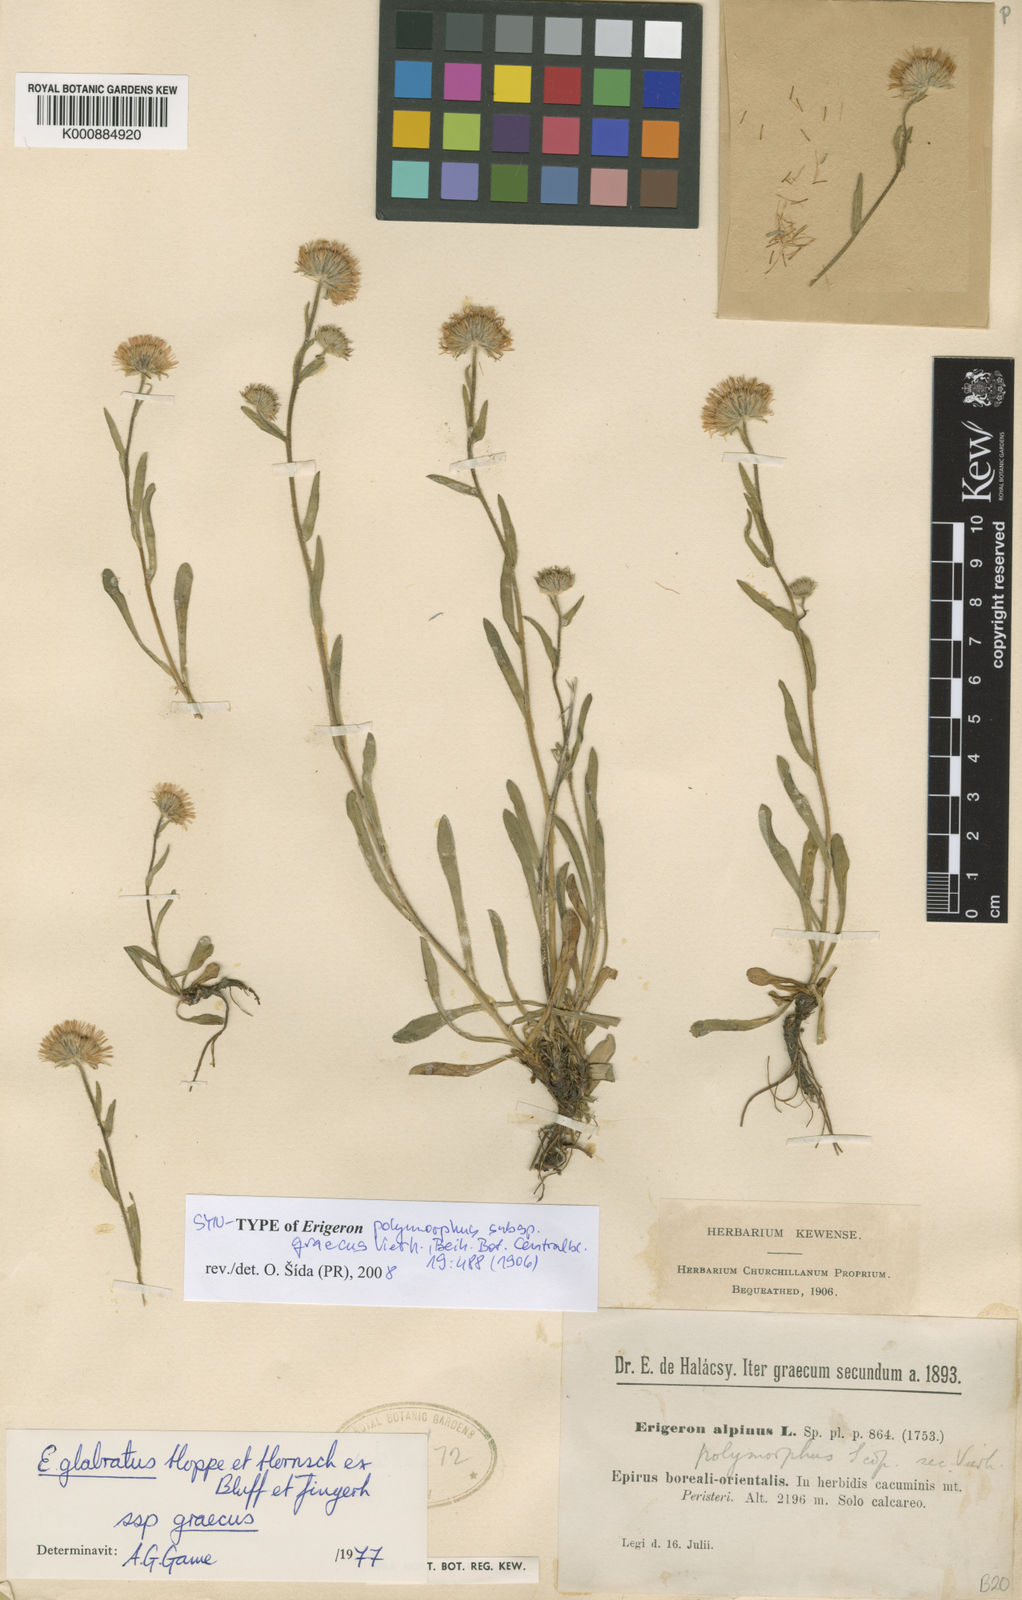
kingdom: Plantae
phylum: Tracheophyta
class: Magnoliopsida
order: Asterales
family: Asteraceae
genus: Erigeron
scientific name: Erigeron glabratus
